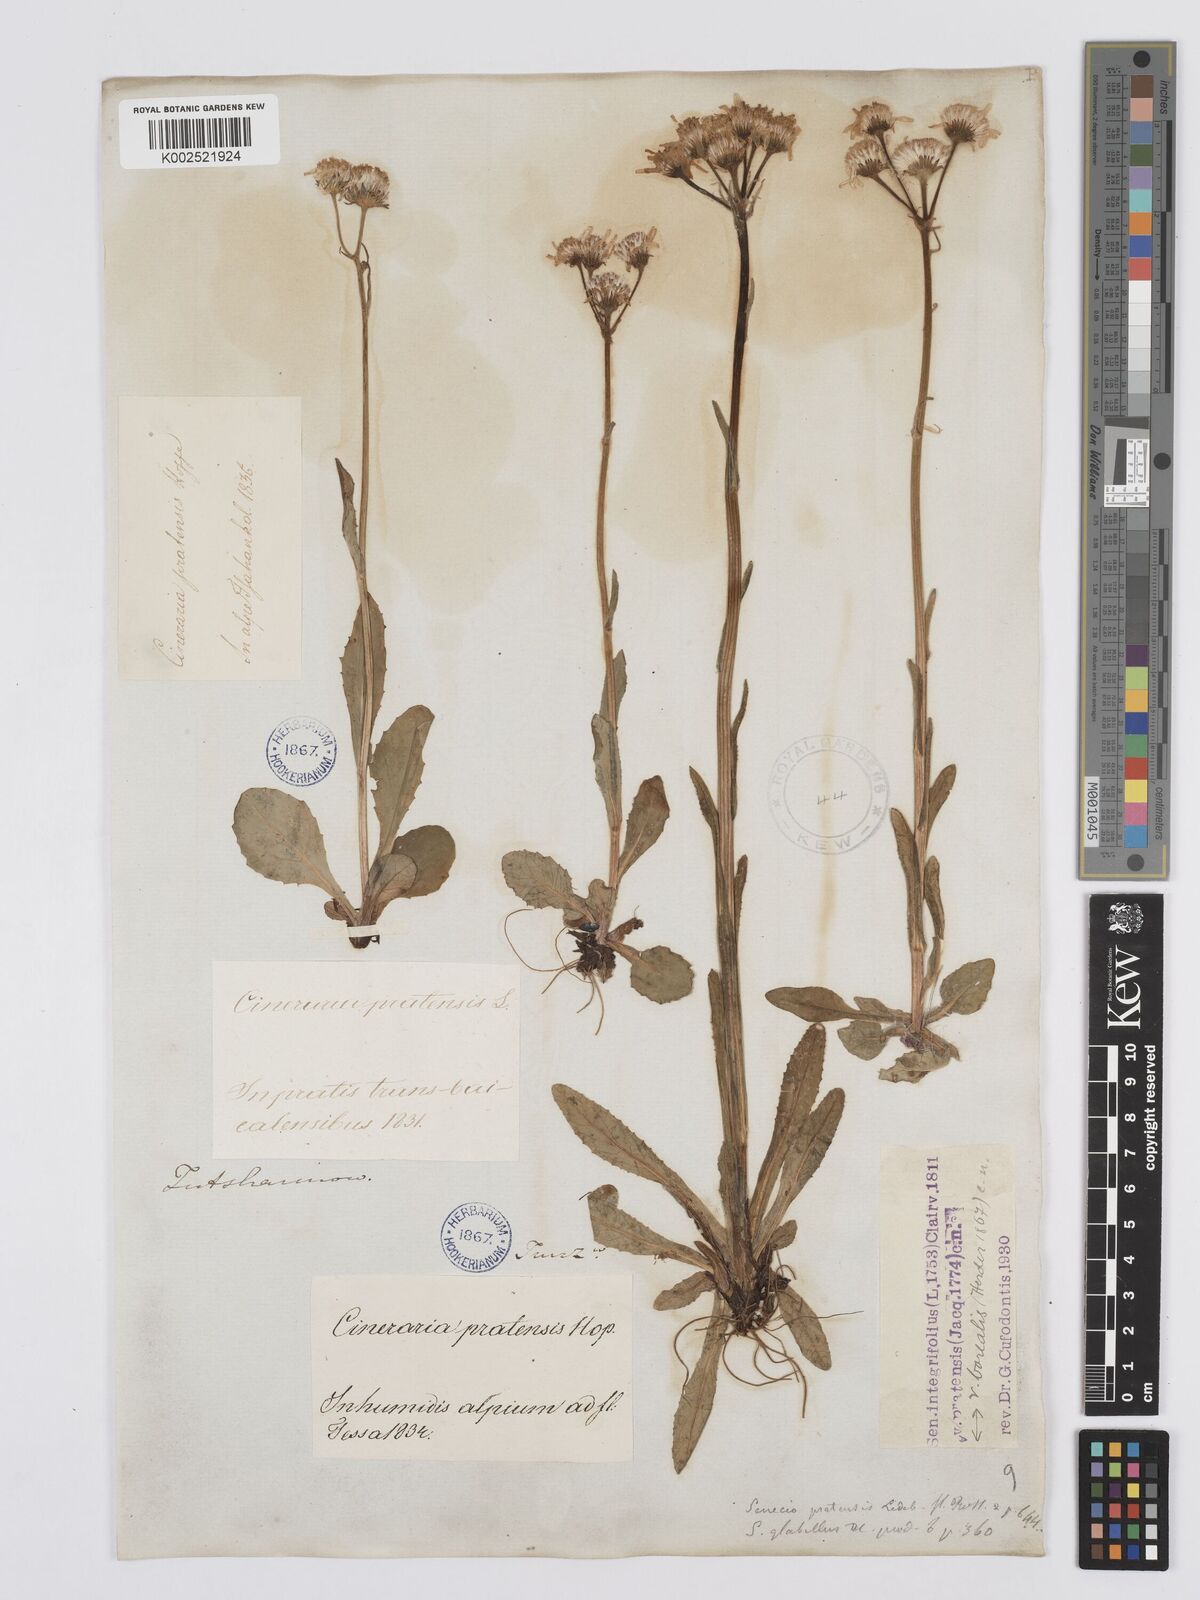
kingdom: Plantae
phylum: Tracheophyta
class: Magnoliopsida
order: Asterales
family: Asteraceae
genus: Tephroseris
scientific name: Tephroseris integrifolia
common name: Field fleawort
